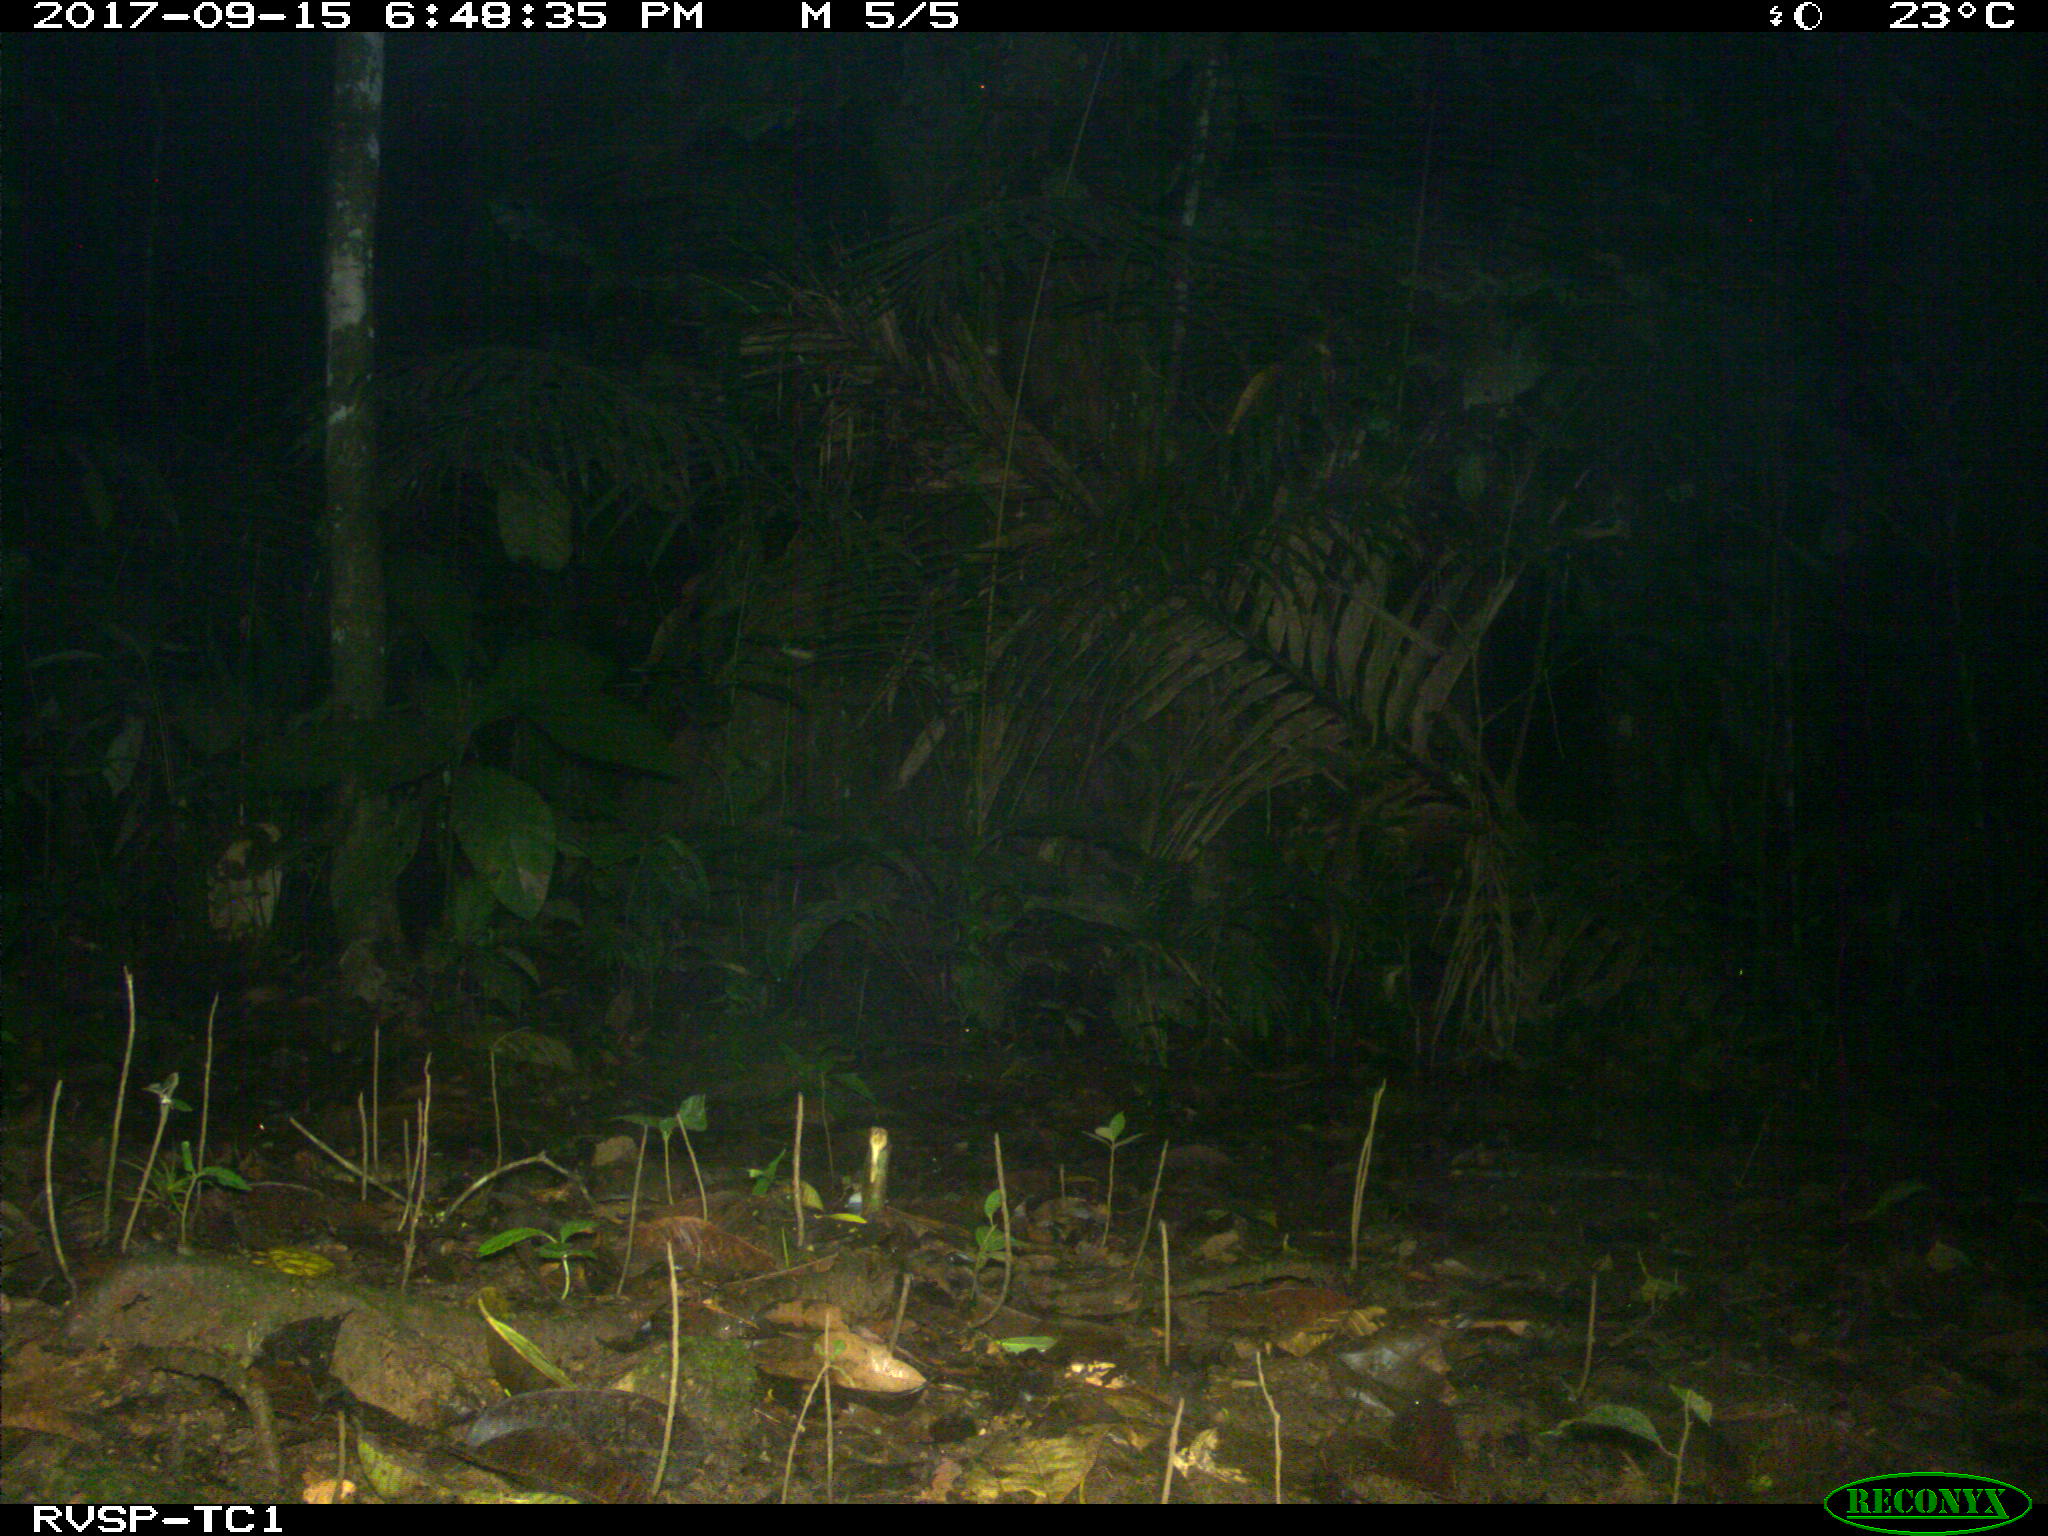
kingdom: Animalia
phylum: Chordata
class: Mammalia
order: Carnivora
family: Felidae
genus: Leopardus
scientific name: Leopardus pardalis
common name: Ocelot
